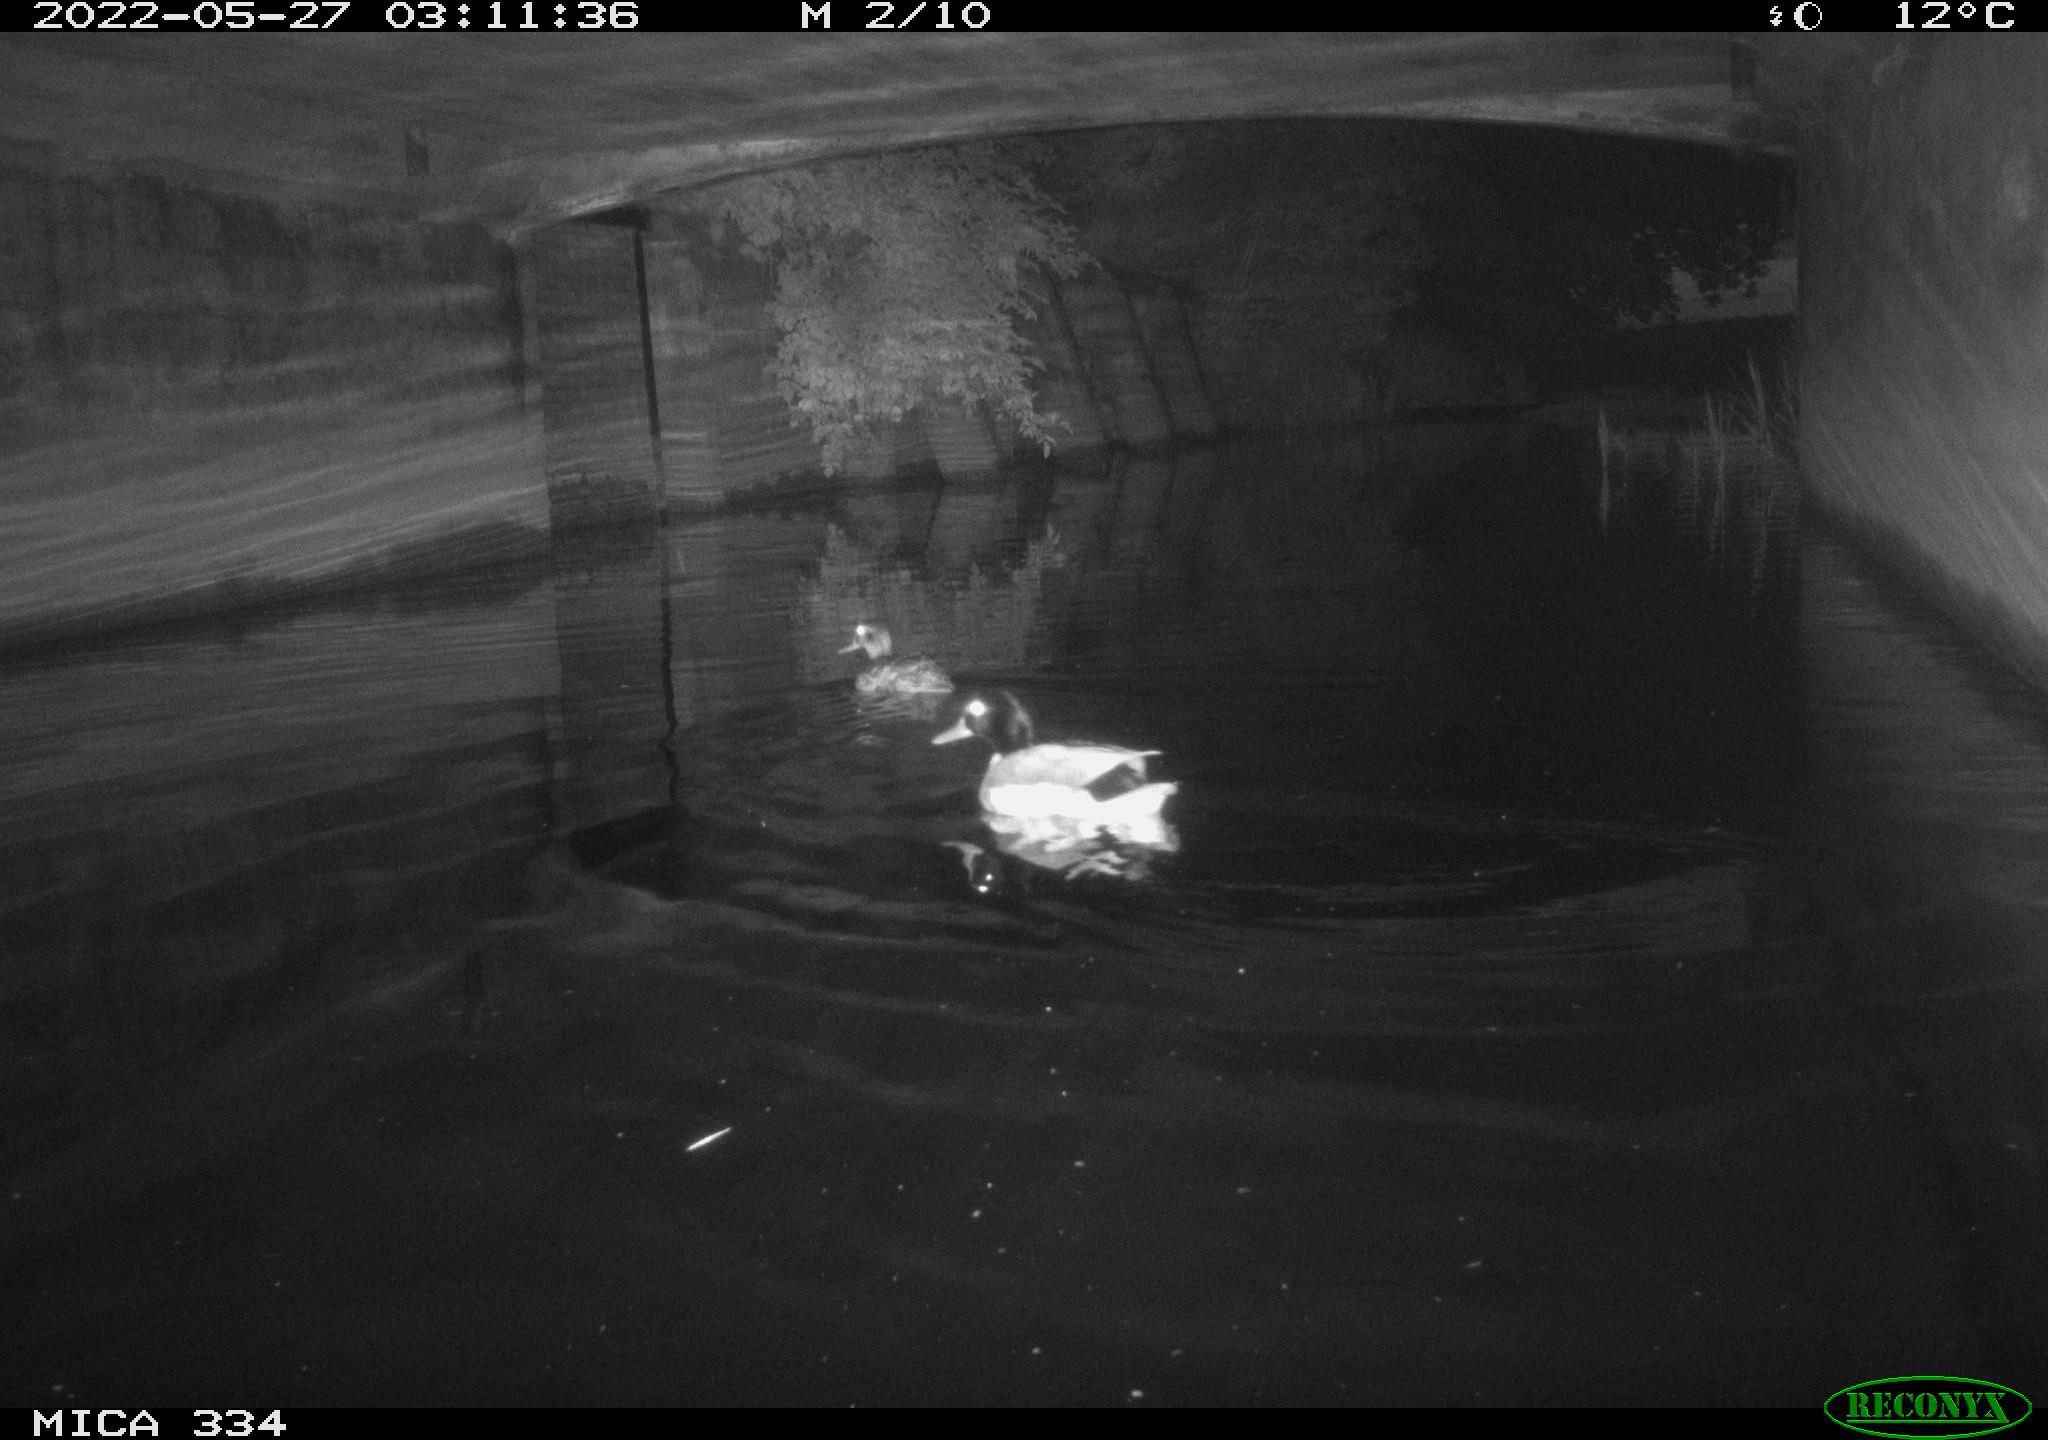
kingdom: Animalia
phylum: Chordata
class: Aves
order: Anseriformes
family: Anatidae
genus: Anas
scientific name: Anas platyrhynchos
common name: Mallard
